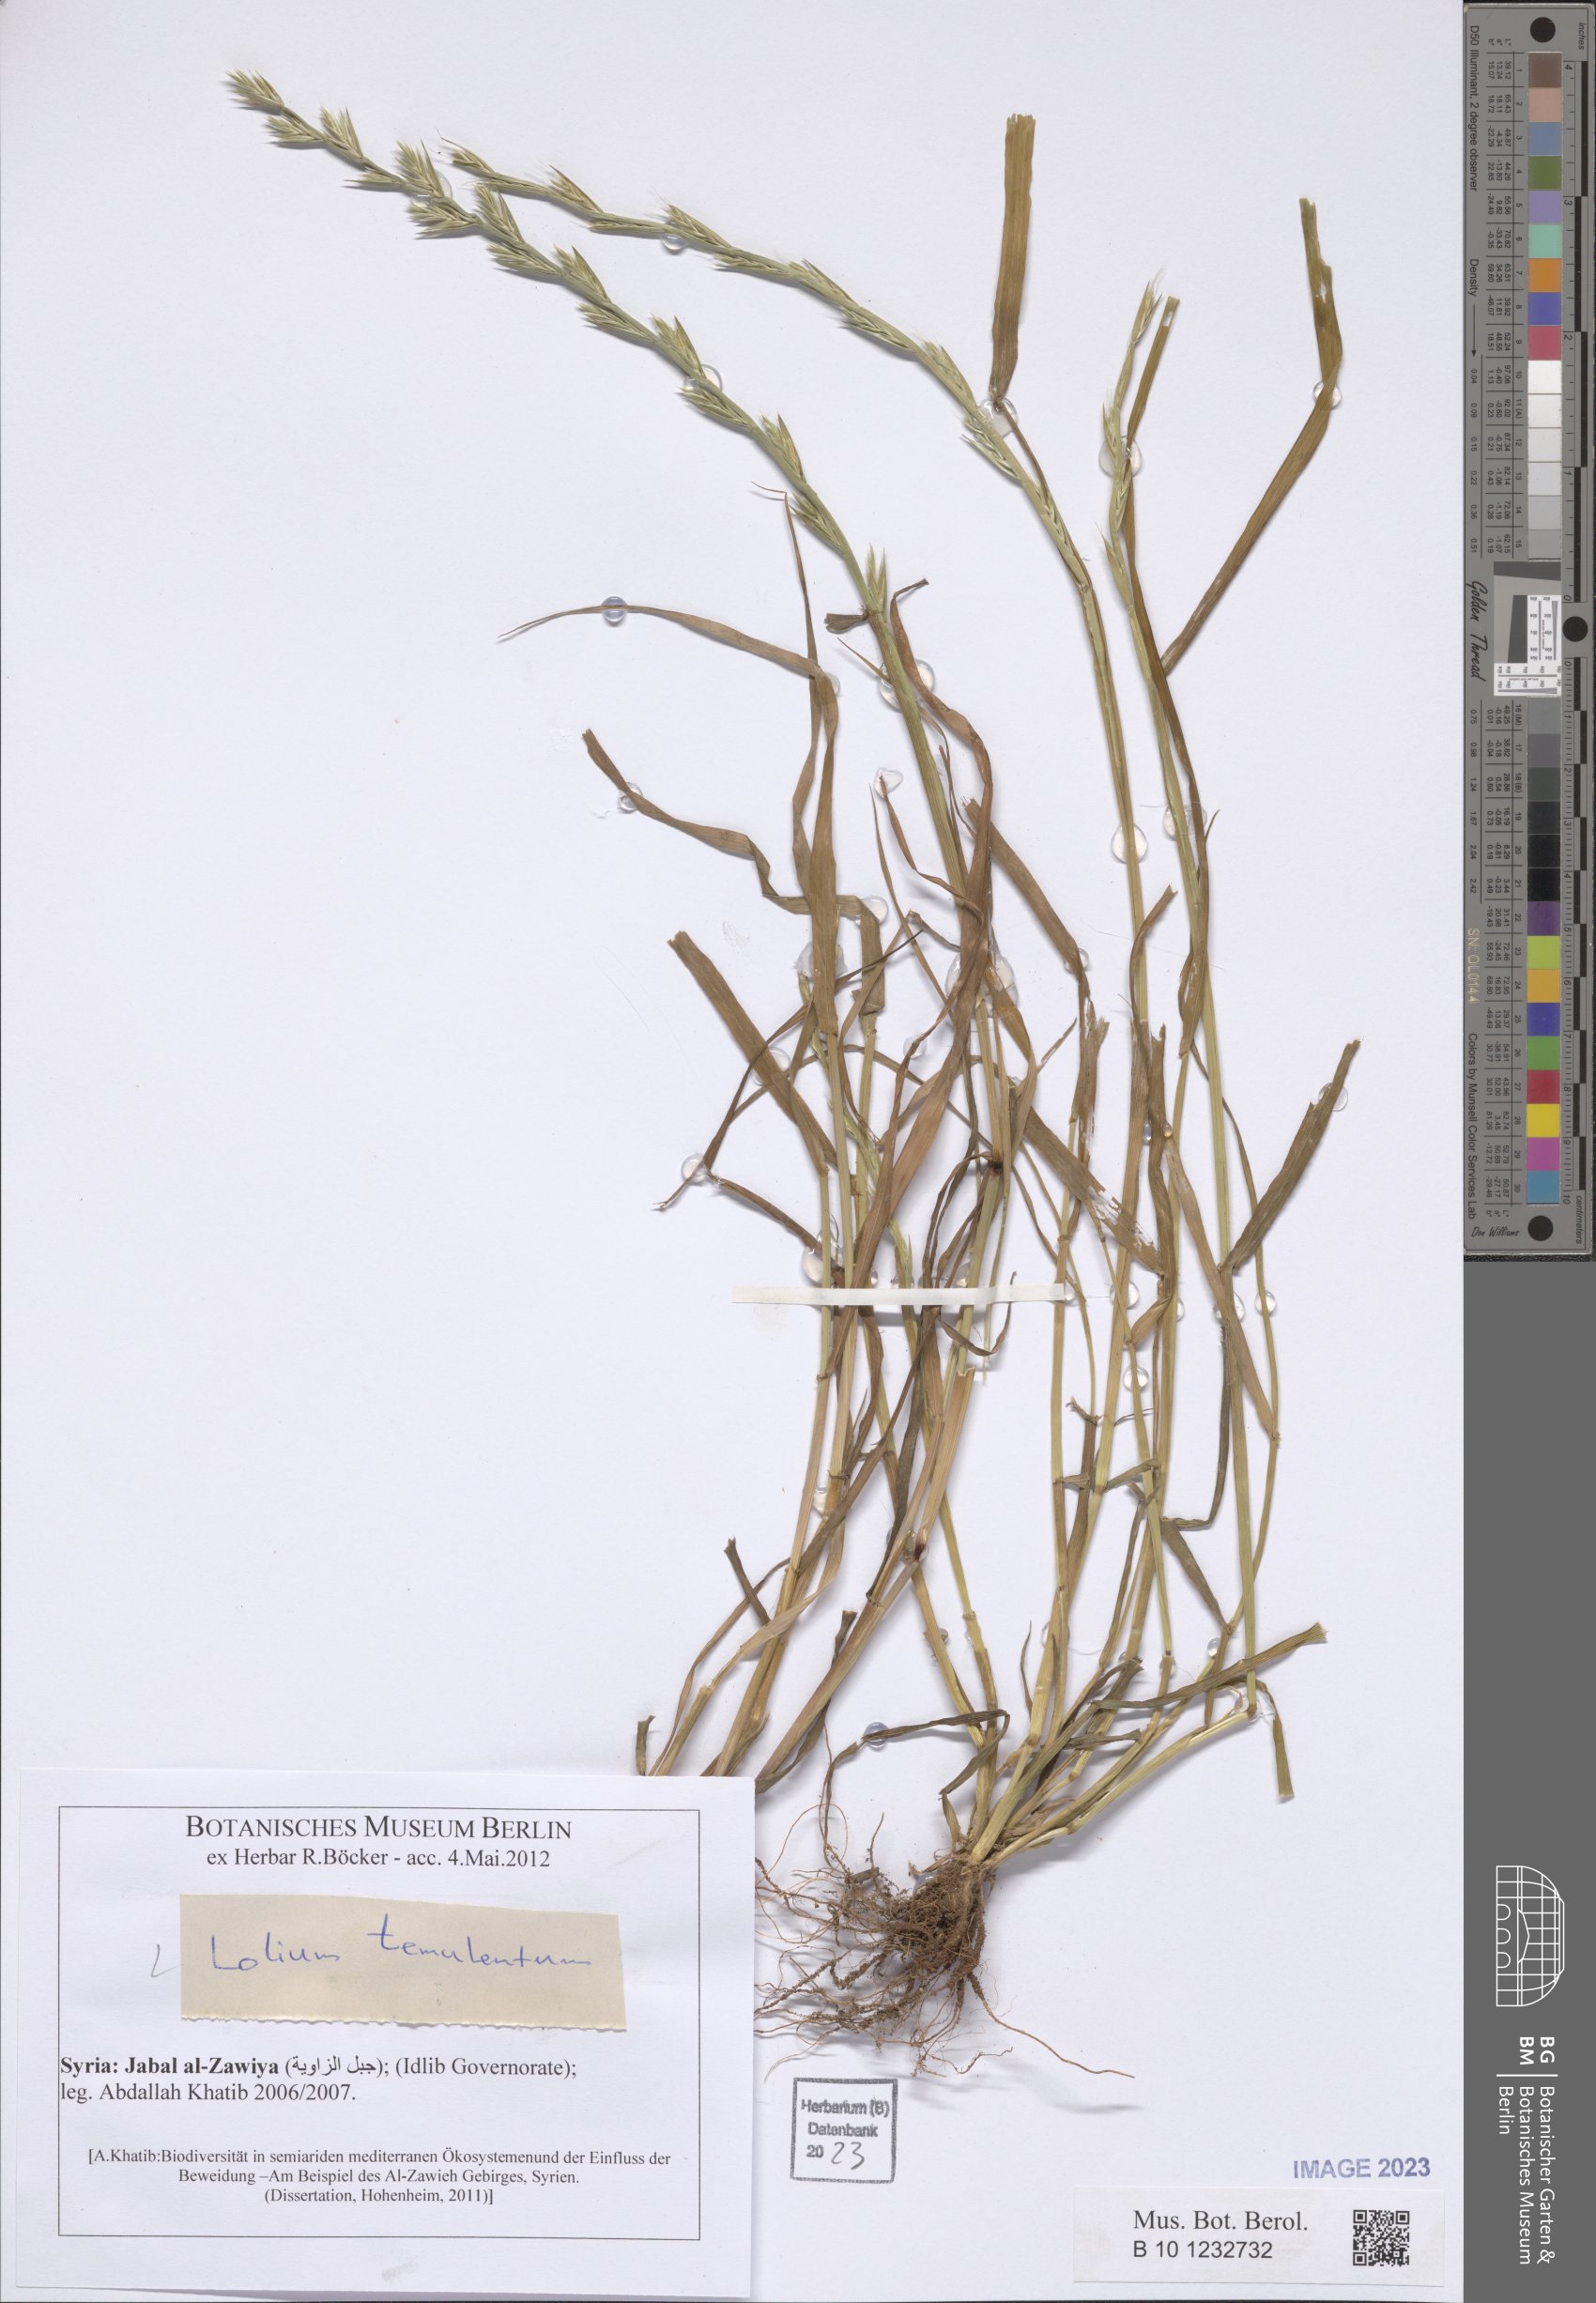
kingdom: Plantae
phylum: Tracheophyta
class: Liliopsida
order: Poales
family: Poaceae
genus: Lolium
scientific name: Lolium temulentum
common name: Darnel
